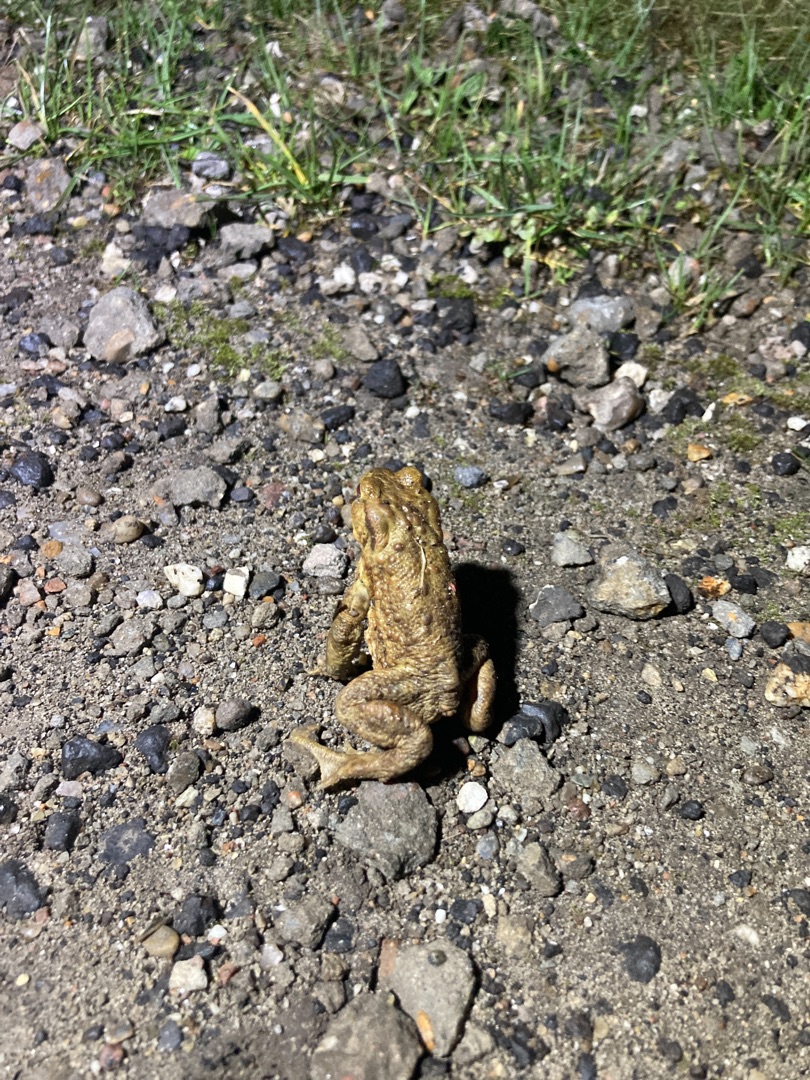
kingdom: Animalia
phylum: Chordata
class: Amphibia
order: Anura
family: Bufonidae
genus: Bufo
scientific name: Bufo bufo
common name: Skrubtudse
